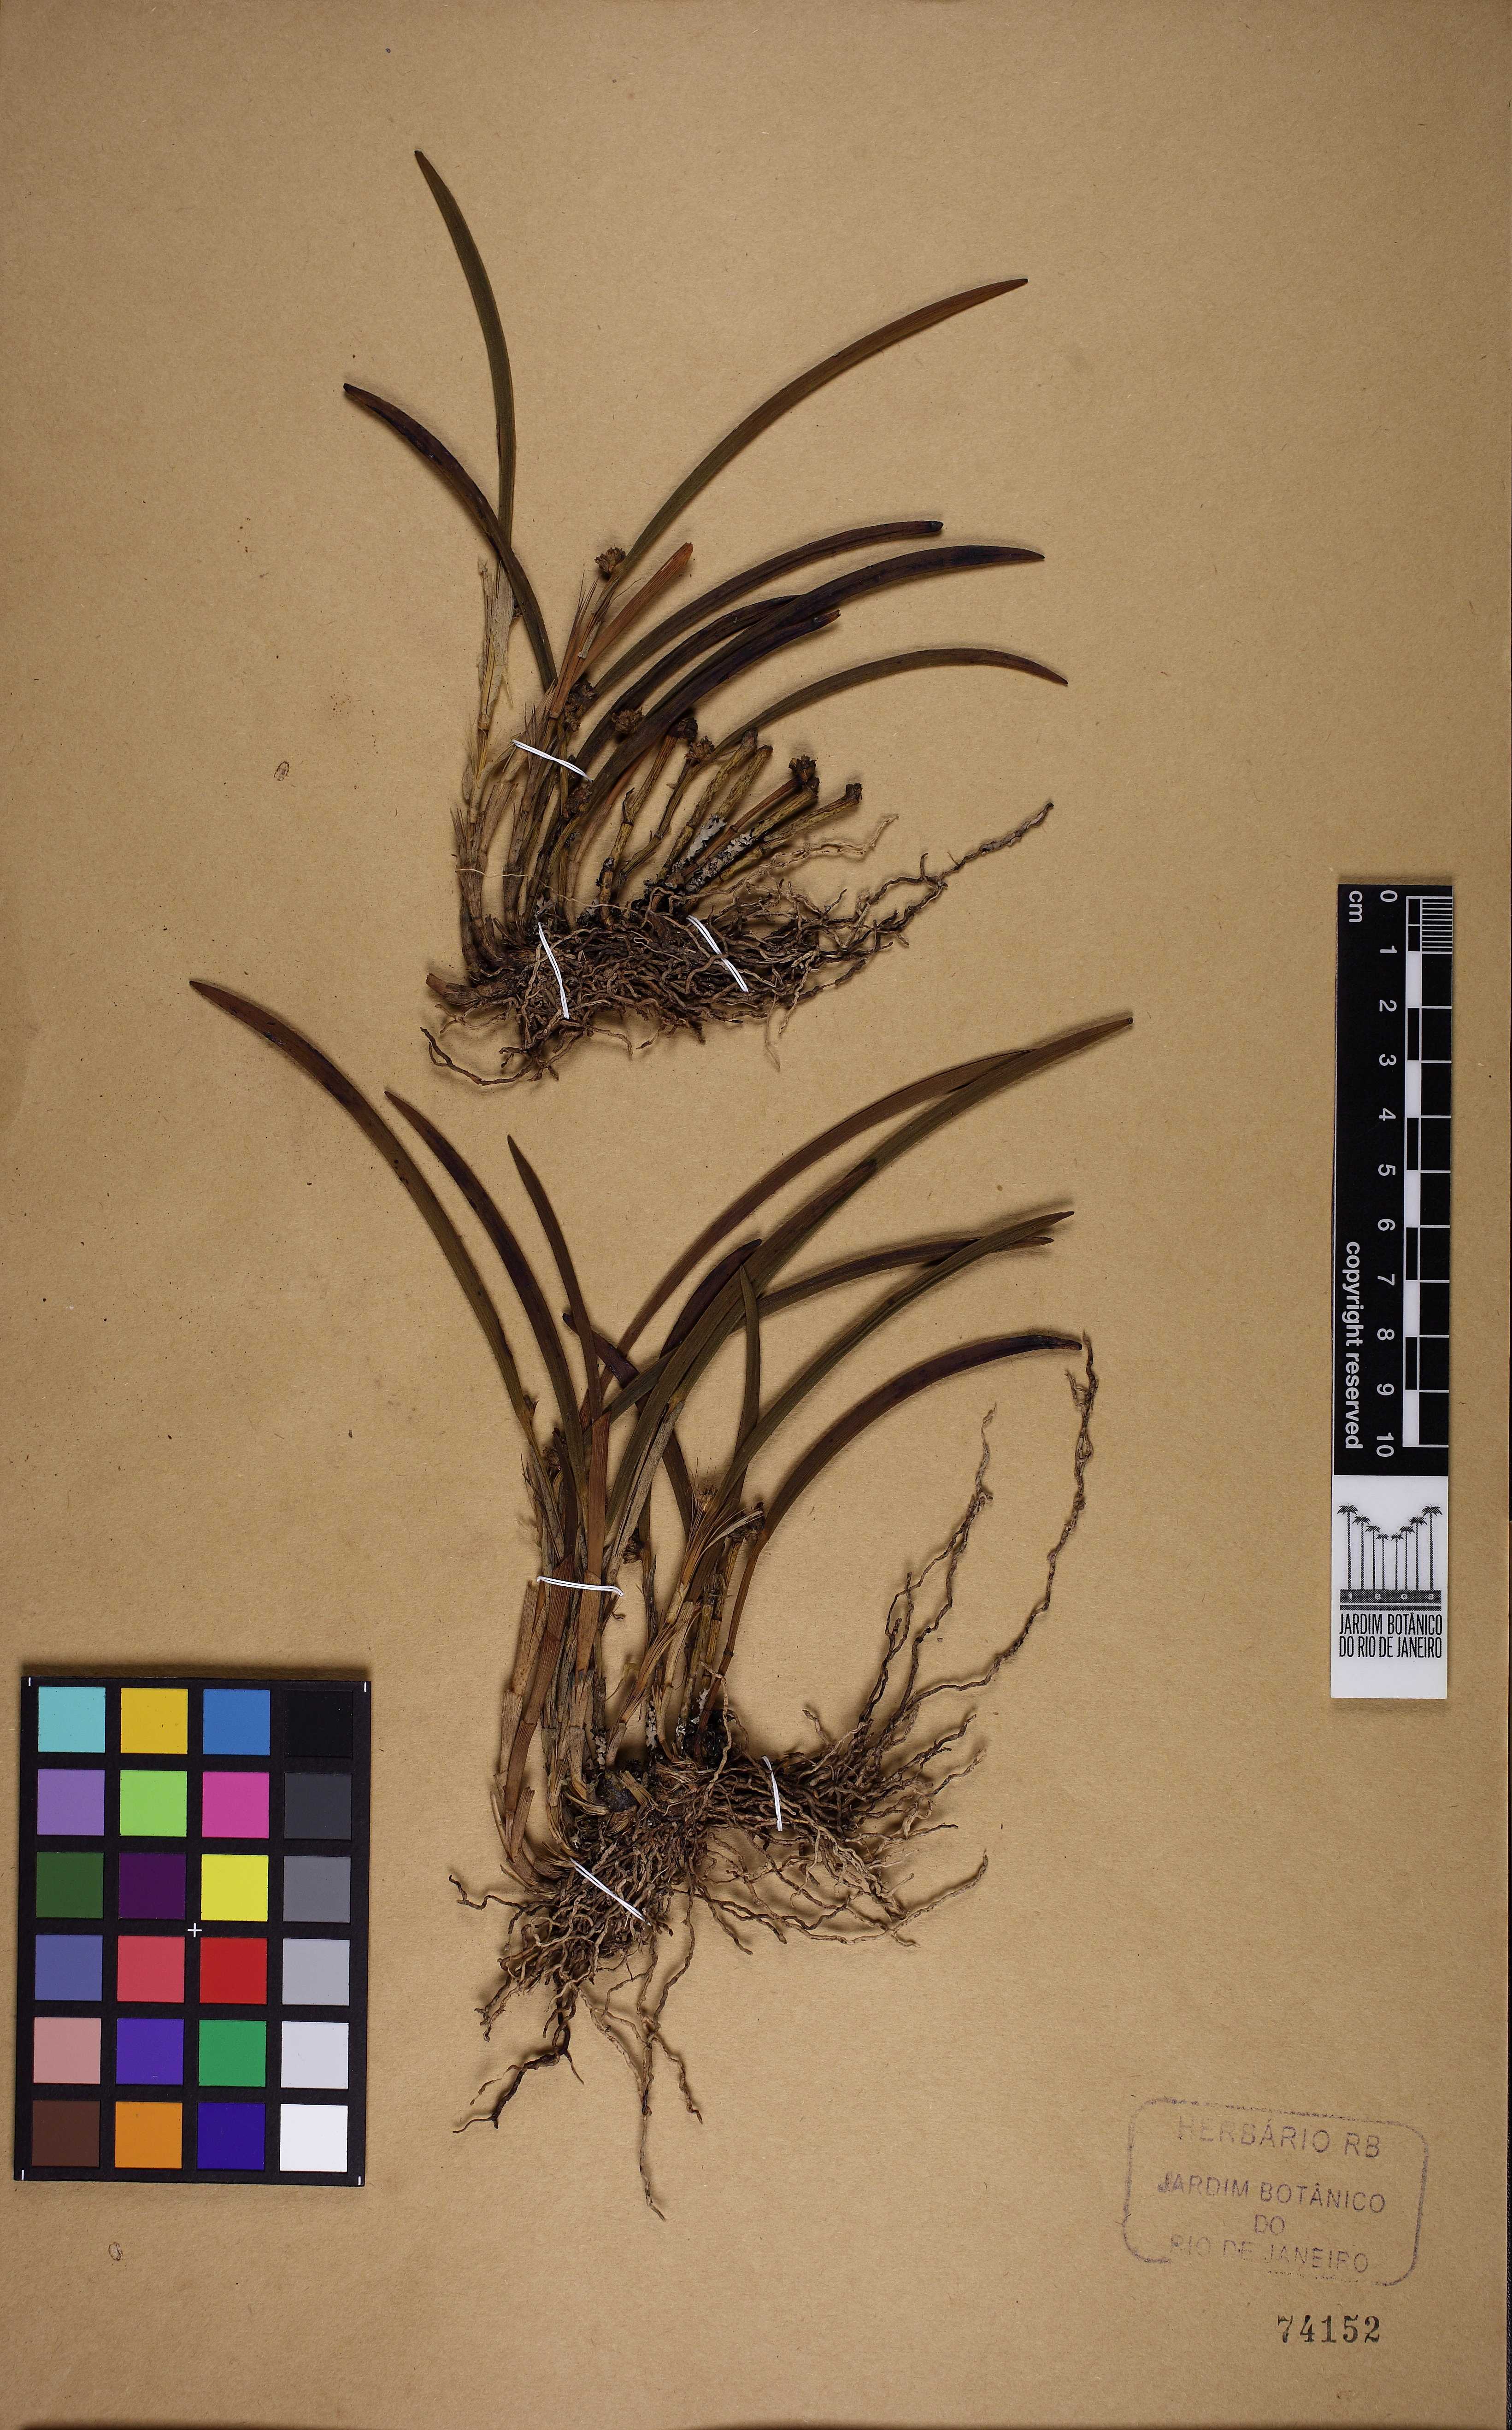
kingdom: Plantae
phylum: Tracheophyta
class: Liliopsida
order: Asparagales
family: Orchidaceae
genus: Octomeria
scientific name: Octomeria
